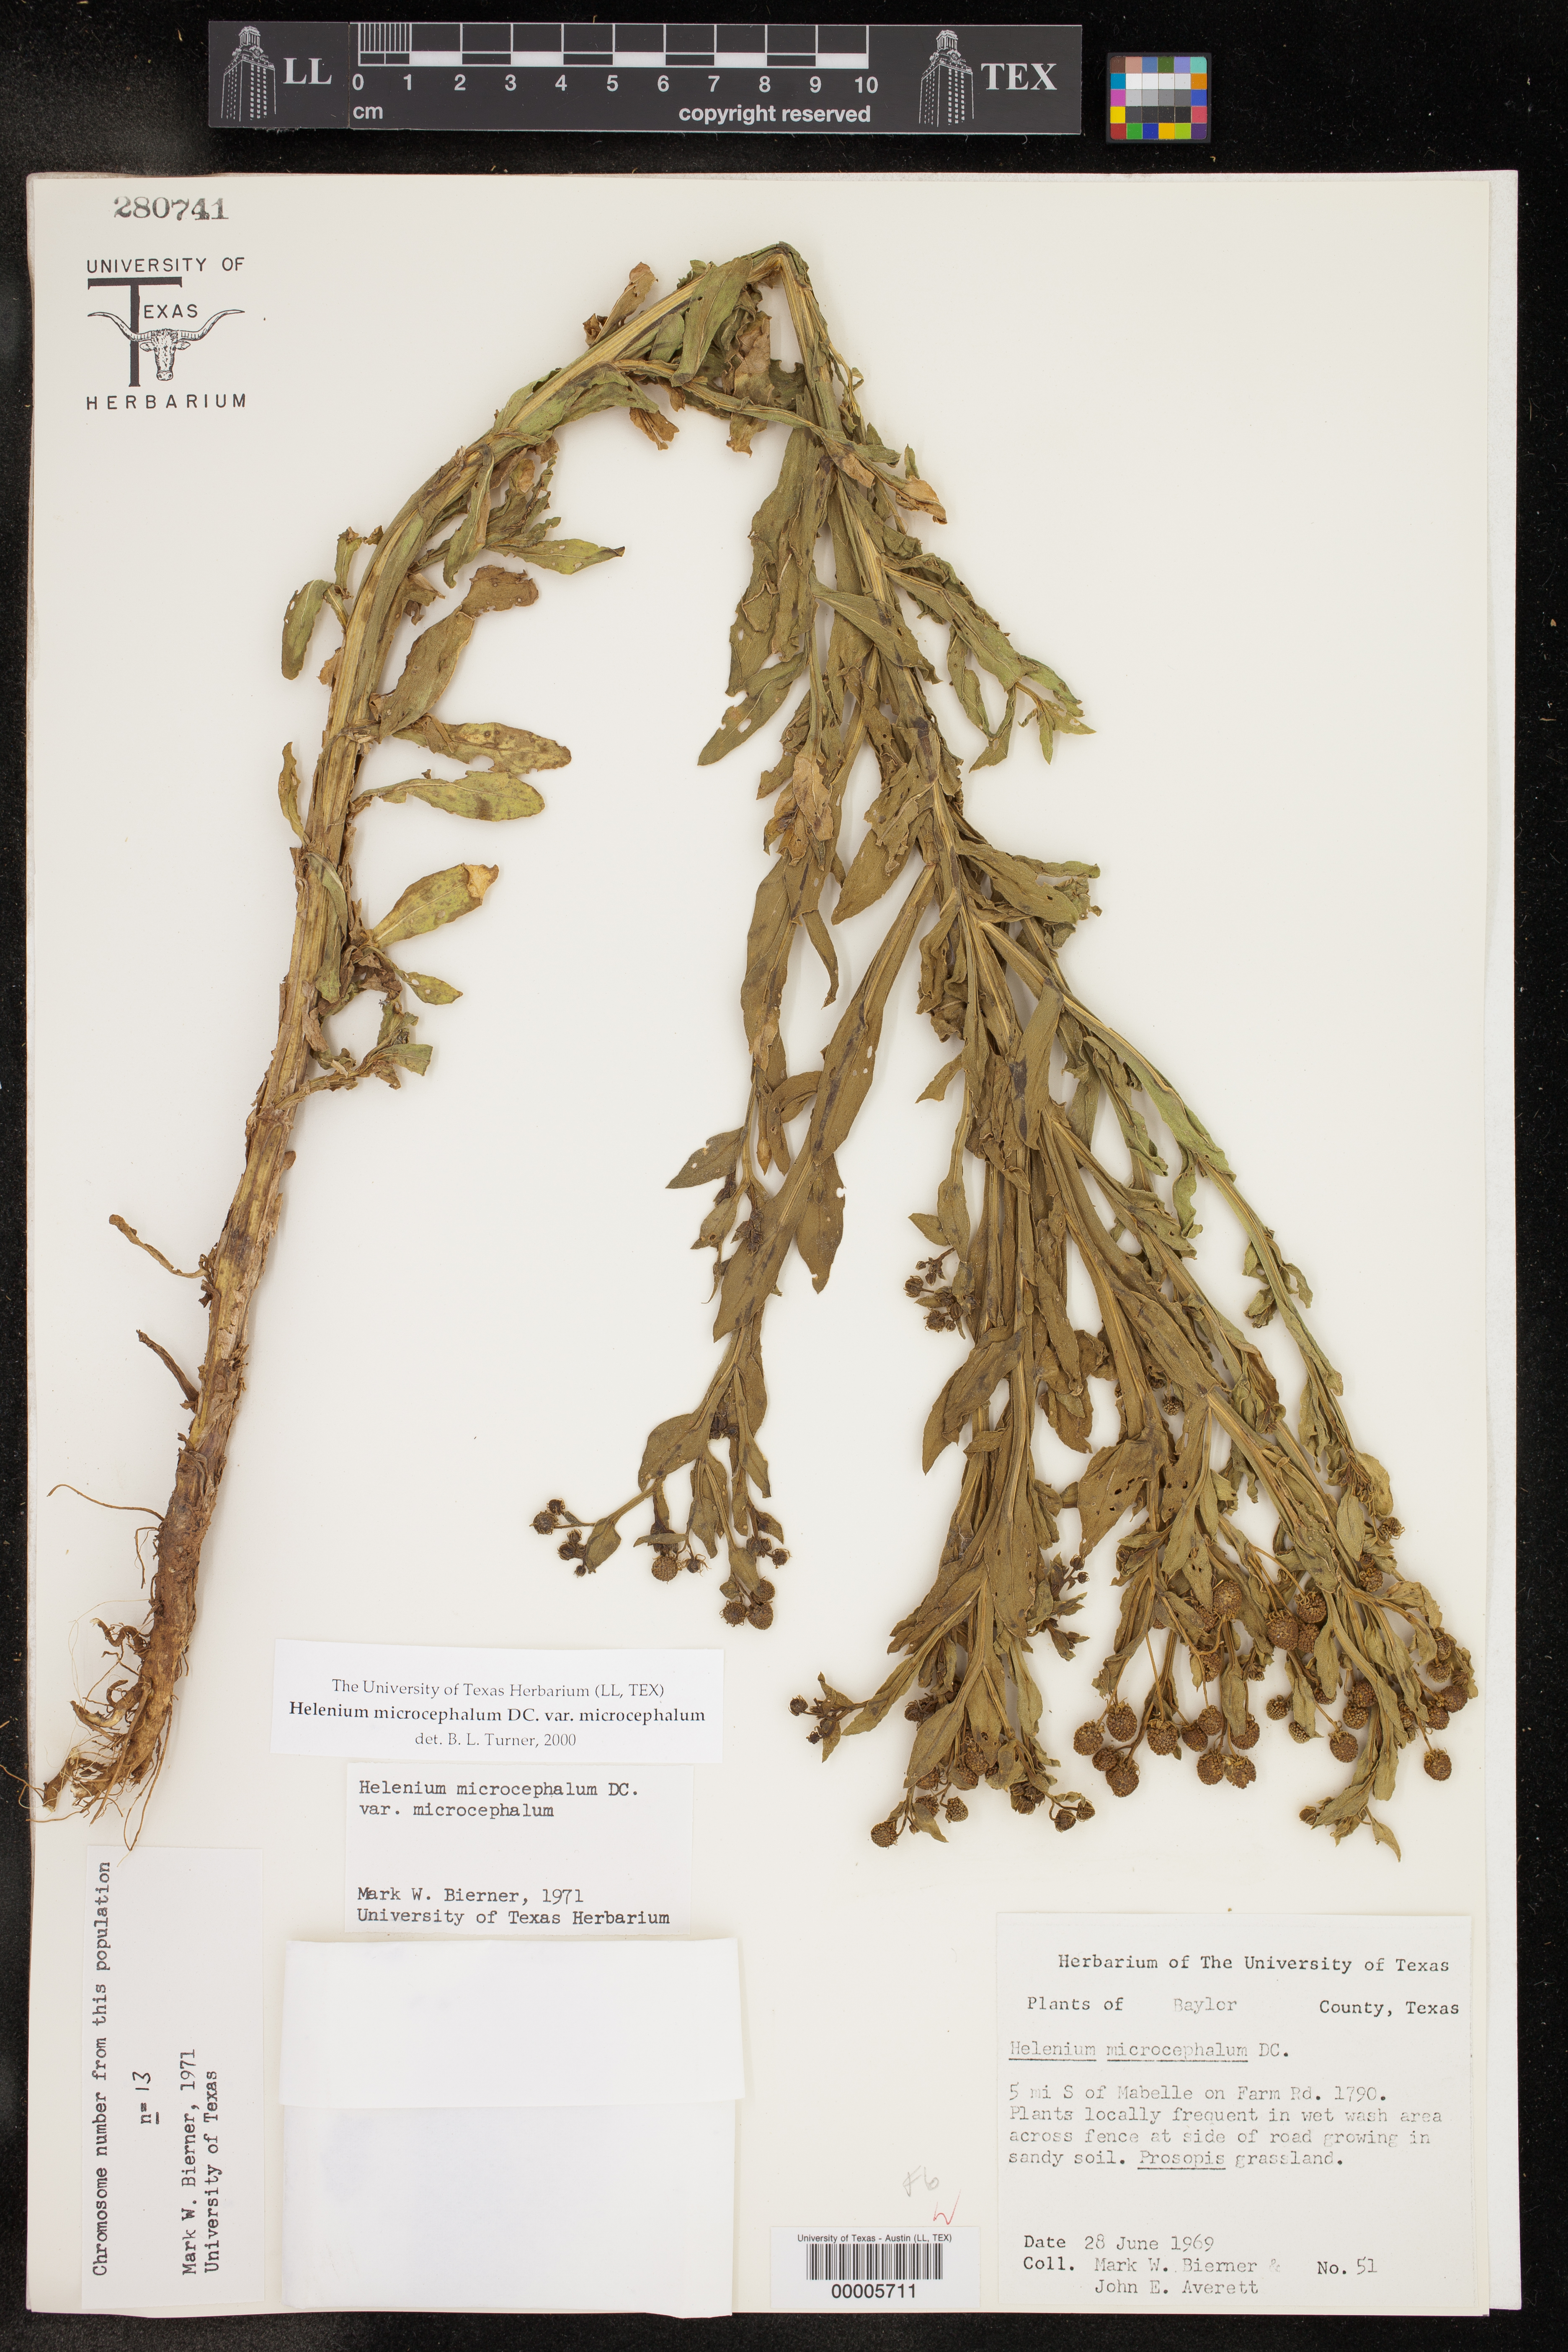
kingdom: Plantae
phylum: Tracheophyta
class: Magnoliopsida
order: Asterales
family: Asteraceae
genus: Helenium
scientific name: Helenium microcephalum
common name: Smallhead sneezeweed
